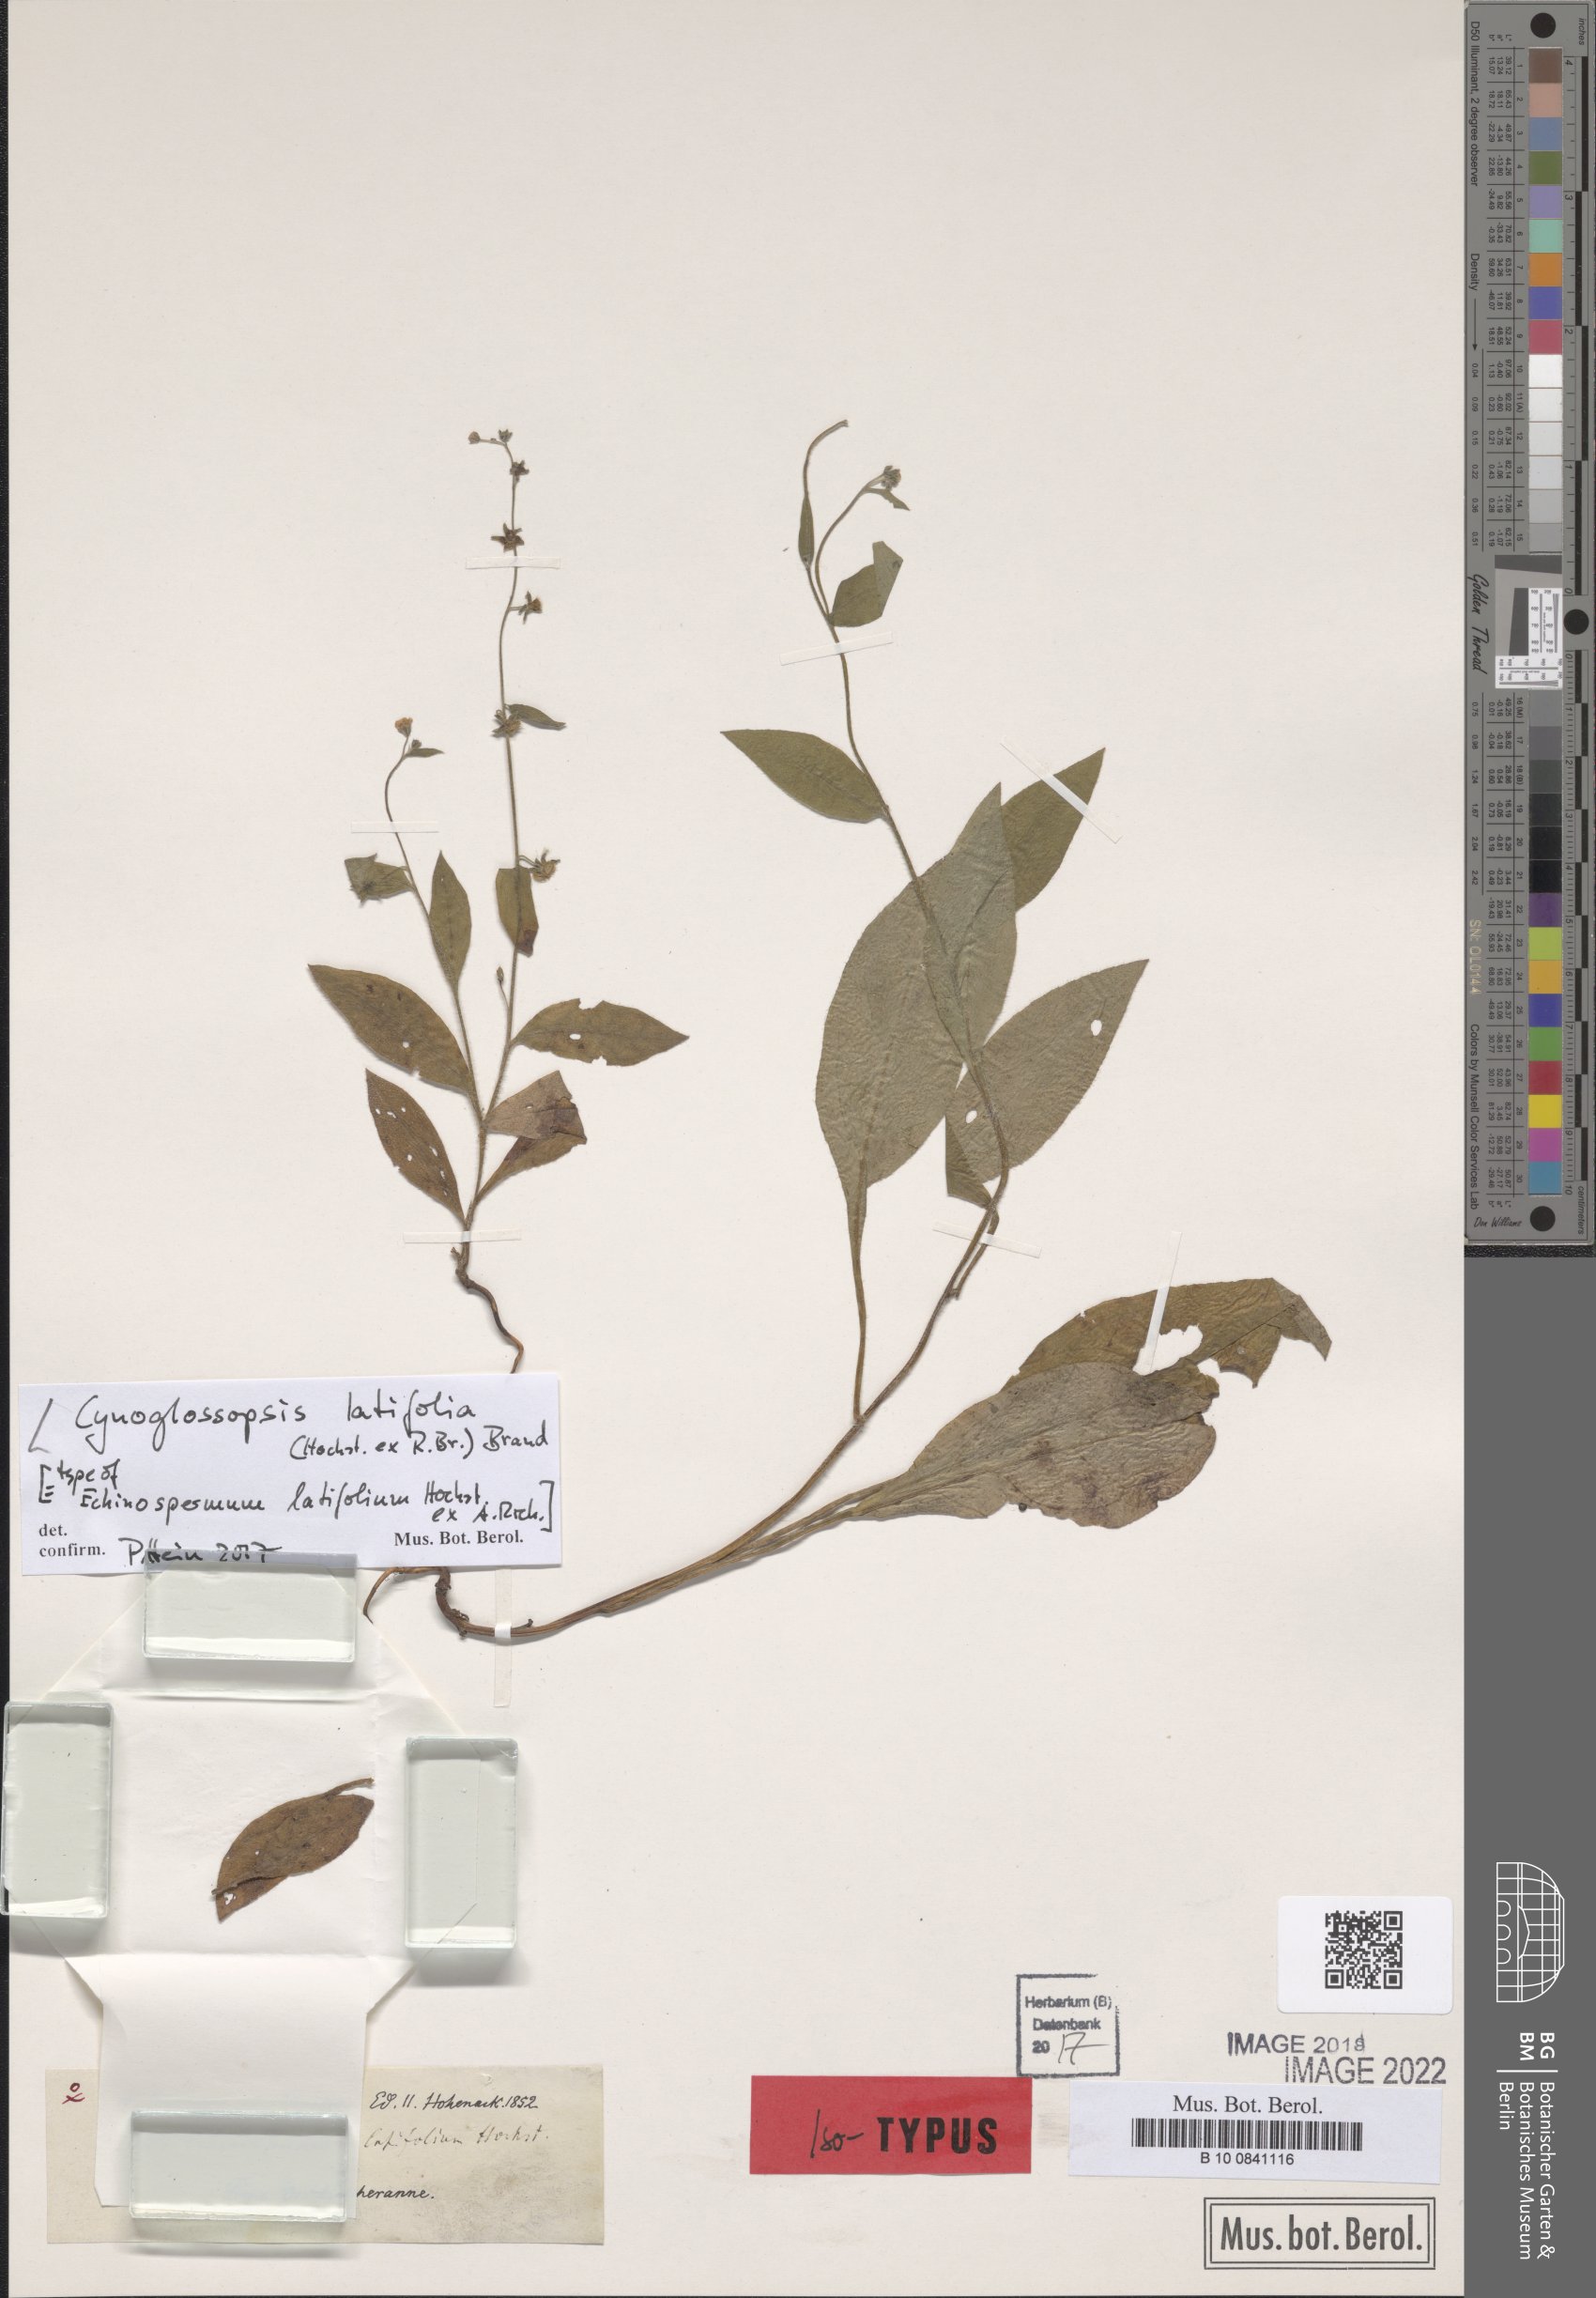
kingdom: Plantae
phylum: Tracheophyta
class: Magnoliopsida
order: Boraginales
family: Boraginaceae
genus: Cynoglossopsis
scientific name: Cynoglossopsis latifolia
